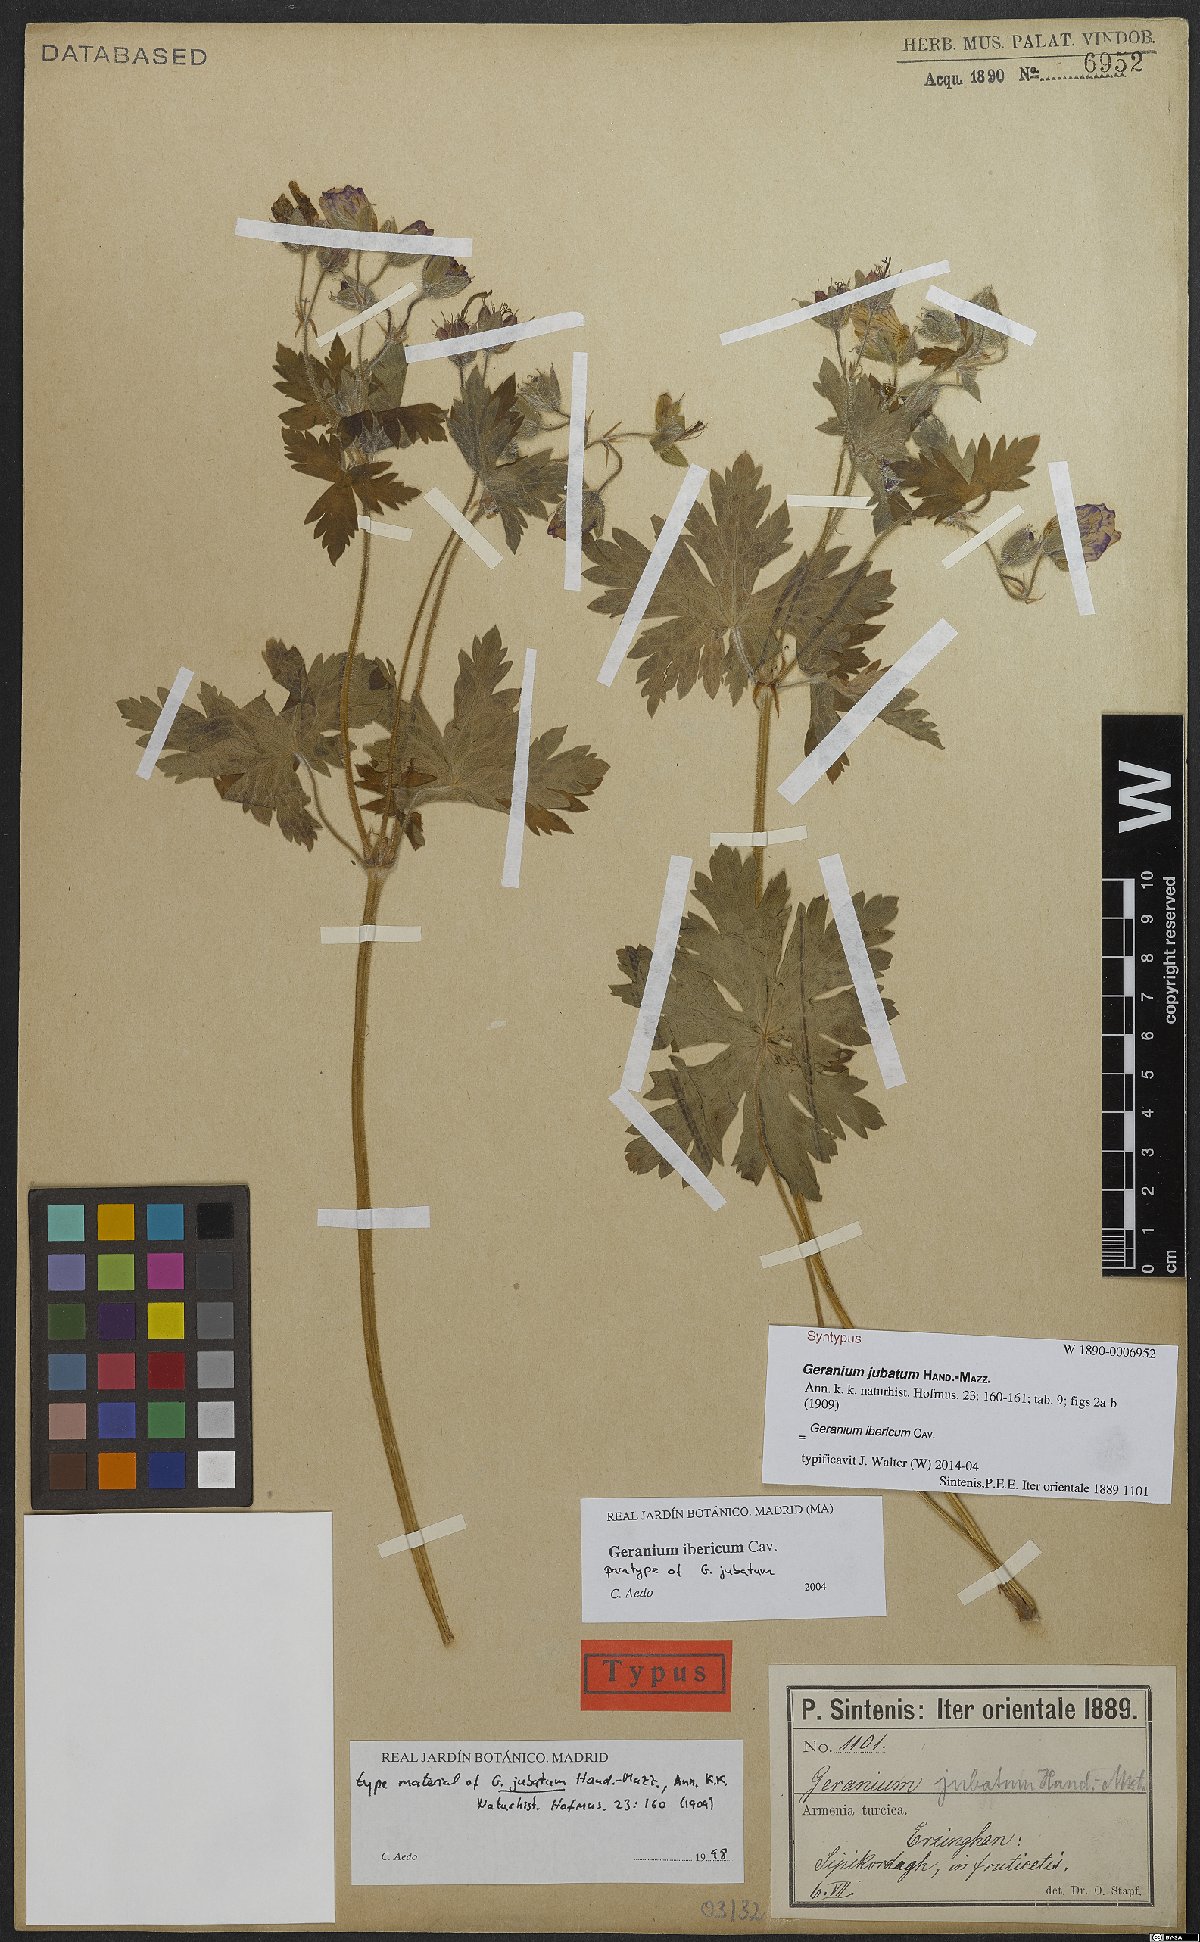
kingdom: Plantae
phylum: Tracheophyta
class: Magnoliopsida
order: Geraniales
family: Geraniaceae
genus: Geranium
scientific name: Geranium ibericum
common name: Caucasian crane's-bill
